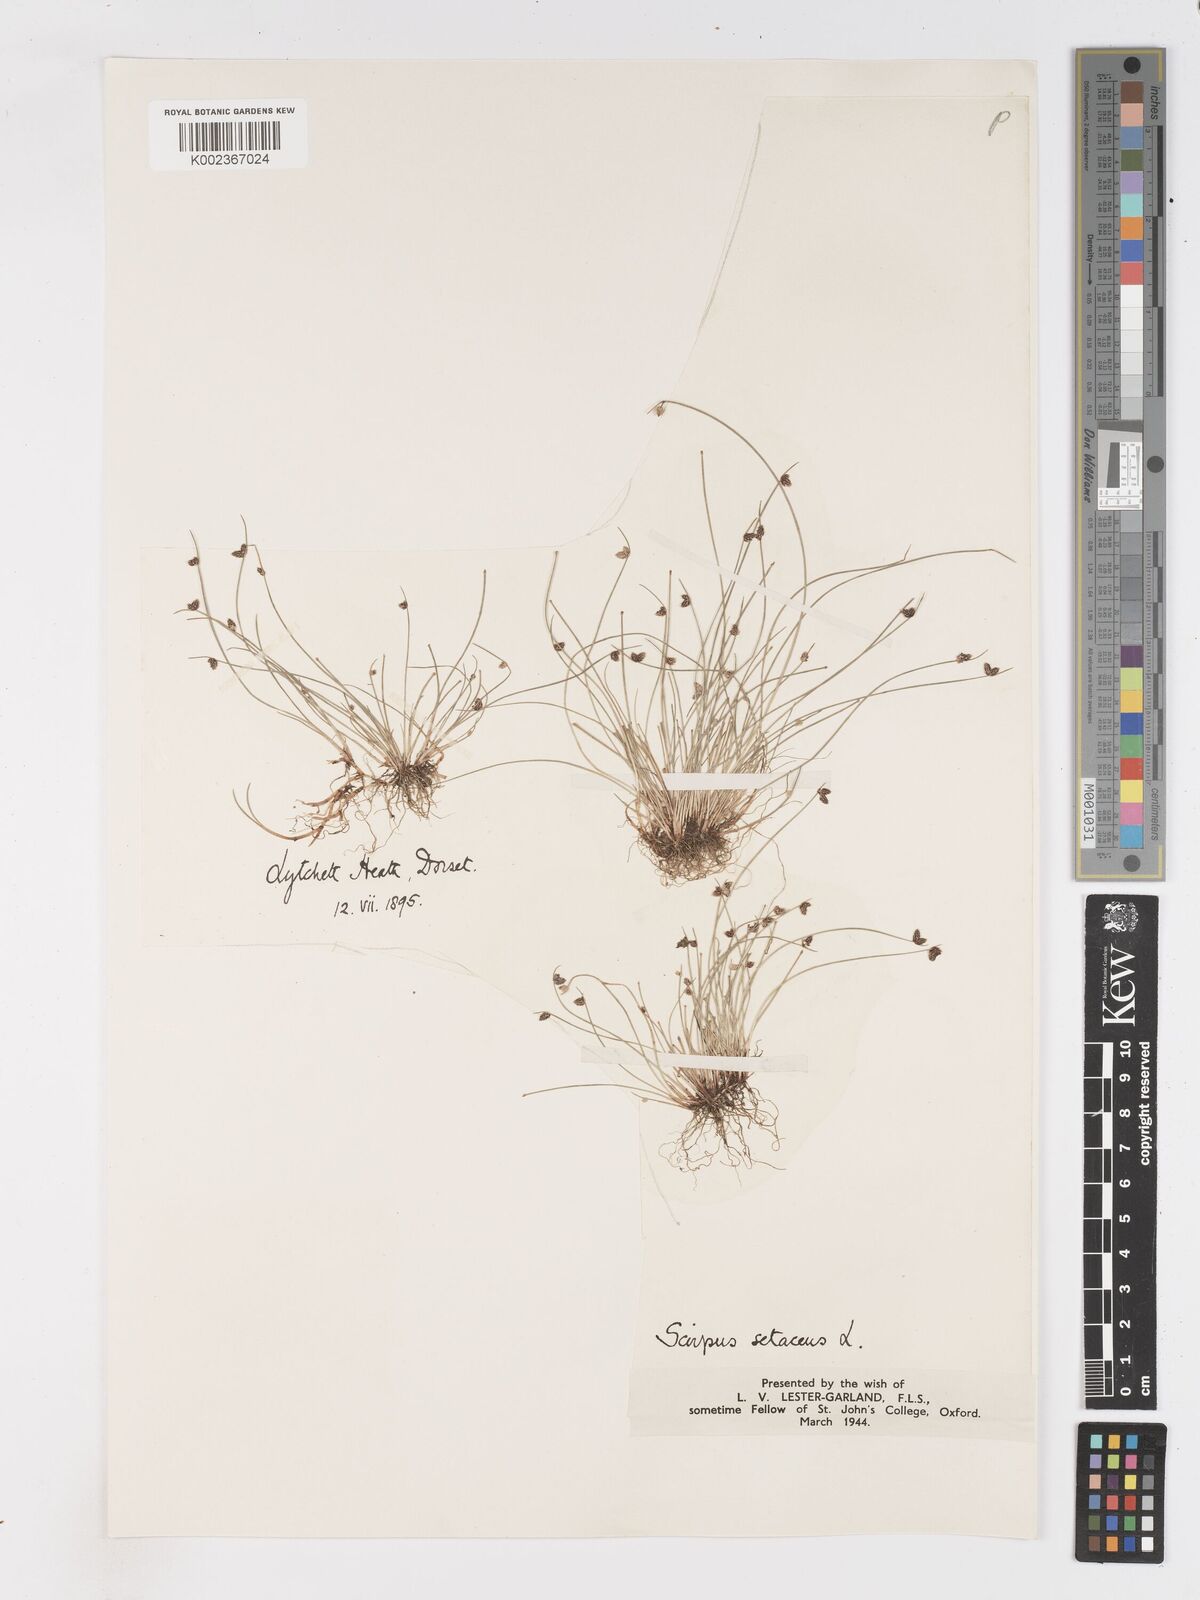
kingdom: Plantae
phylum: Tracheophyta
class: Liliopsida
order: Poales
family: Cyperaceae
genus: Isolepis
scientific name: Isolepis setacea
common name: Bristle club-rush
